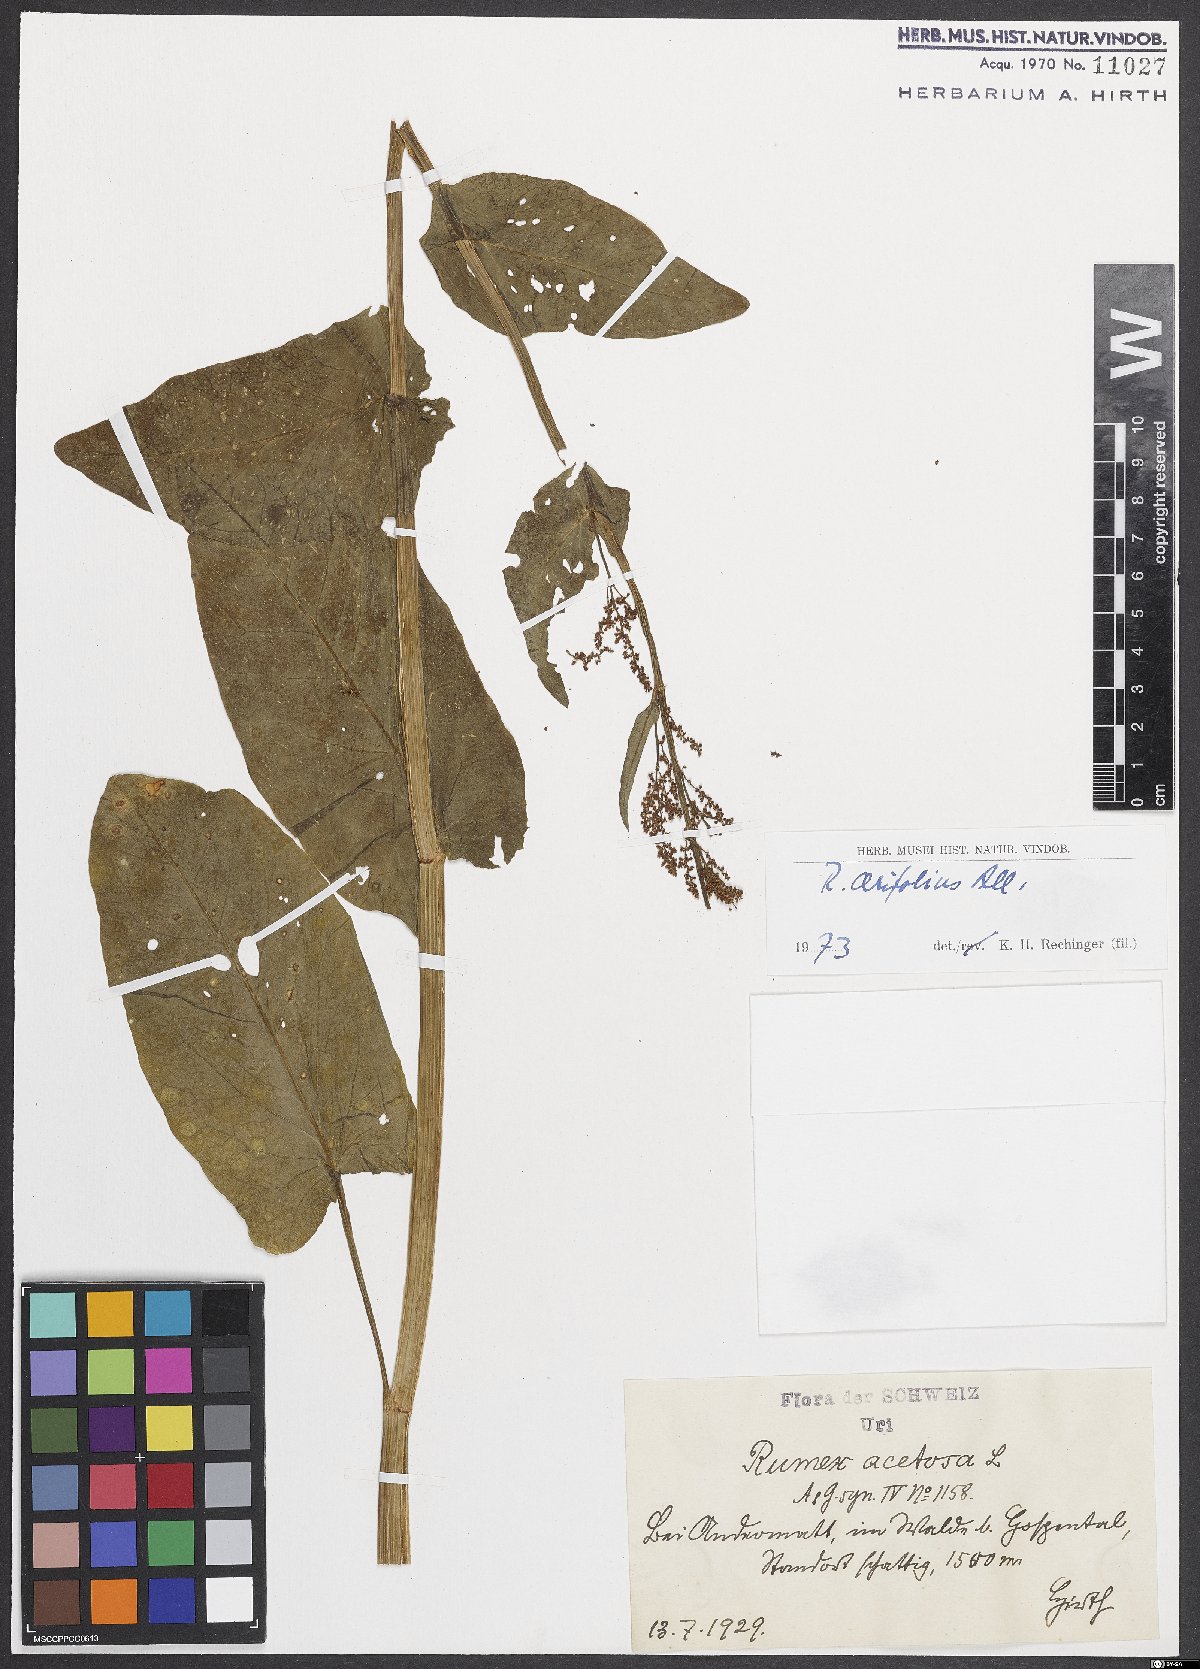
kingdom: Plantae
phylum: Tracheophyta
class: Magnoliopsida
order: Caryophyllales
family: Polygonaceae
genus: Rumex
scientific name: Rumex arifolius
